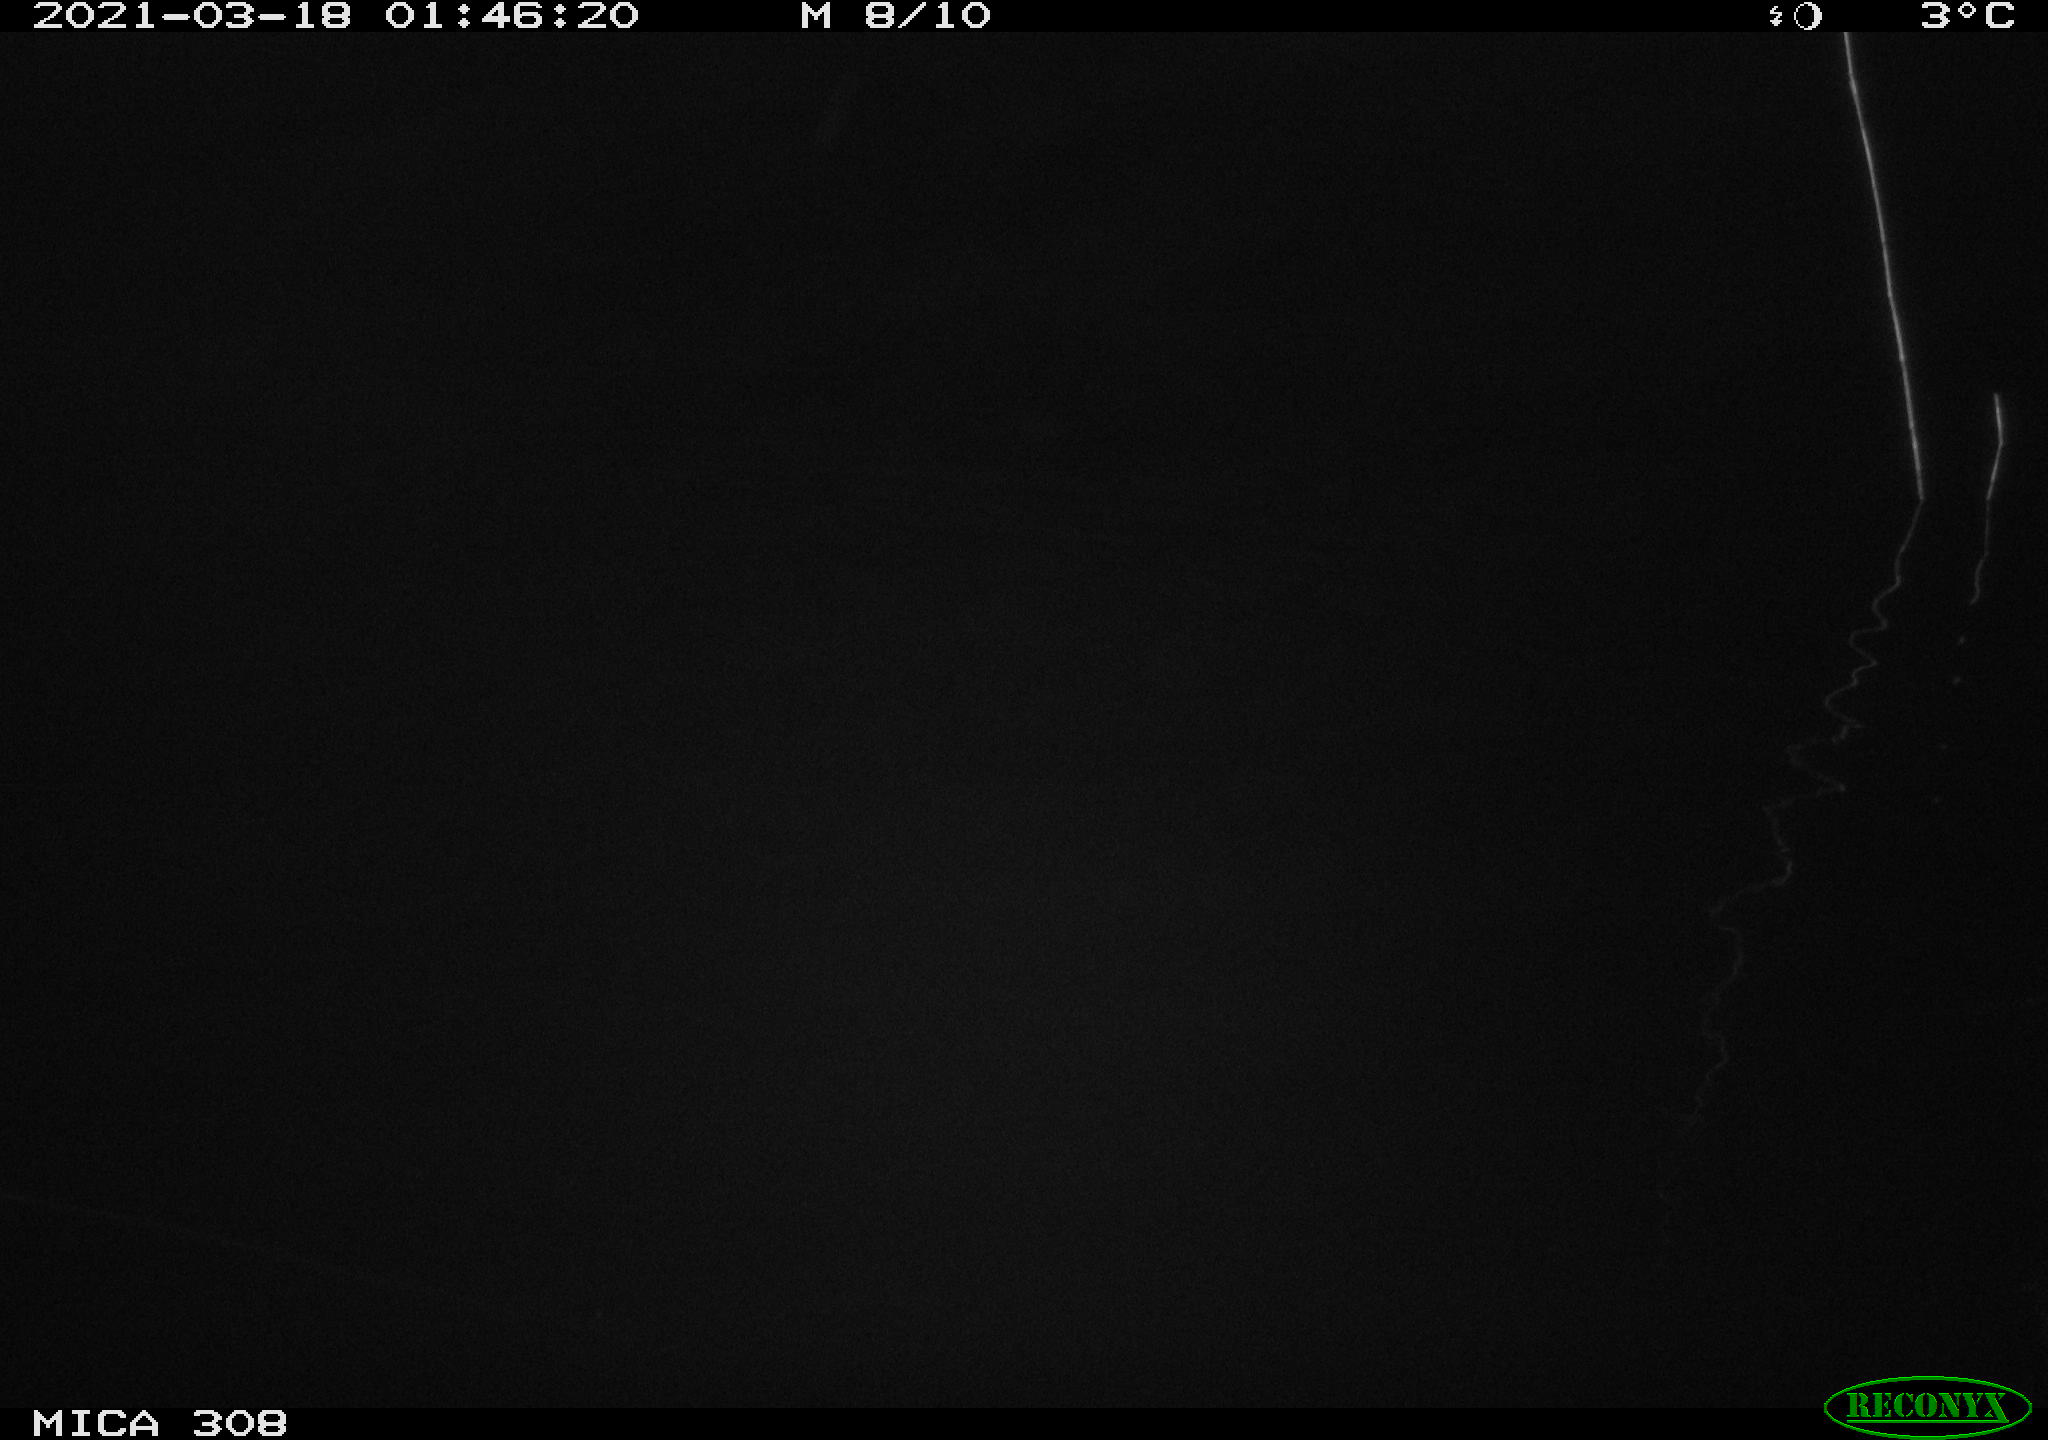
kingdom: Animalia
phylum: Chordata
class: Mammalia
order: Rodentia
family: Cricetidae
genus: Ondatra
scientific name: Ondatra zibethicus
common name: Muskrat
